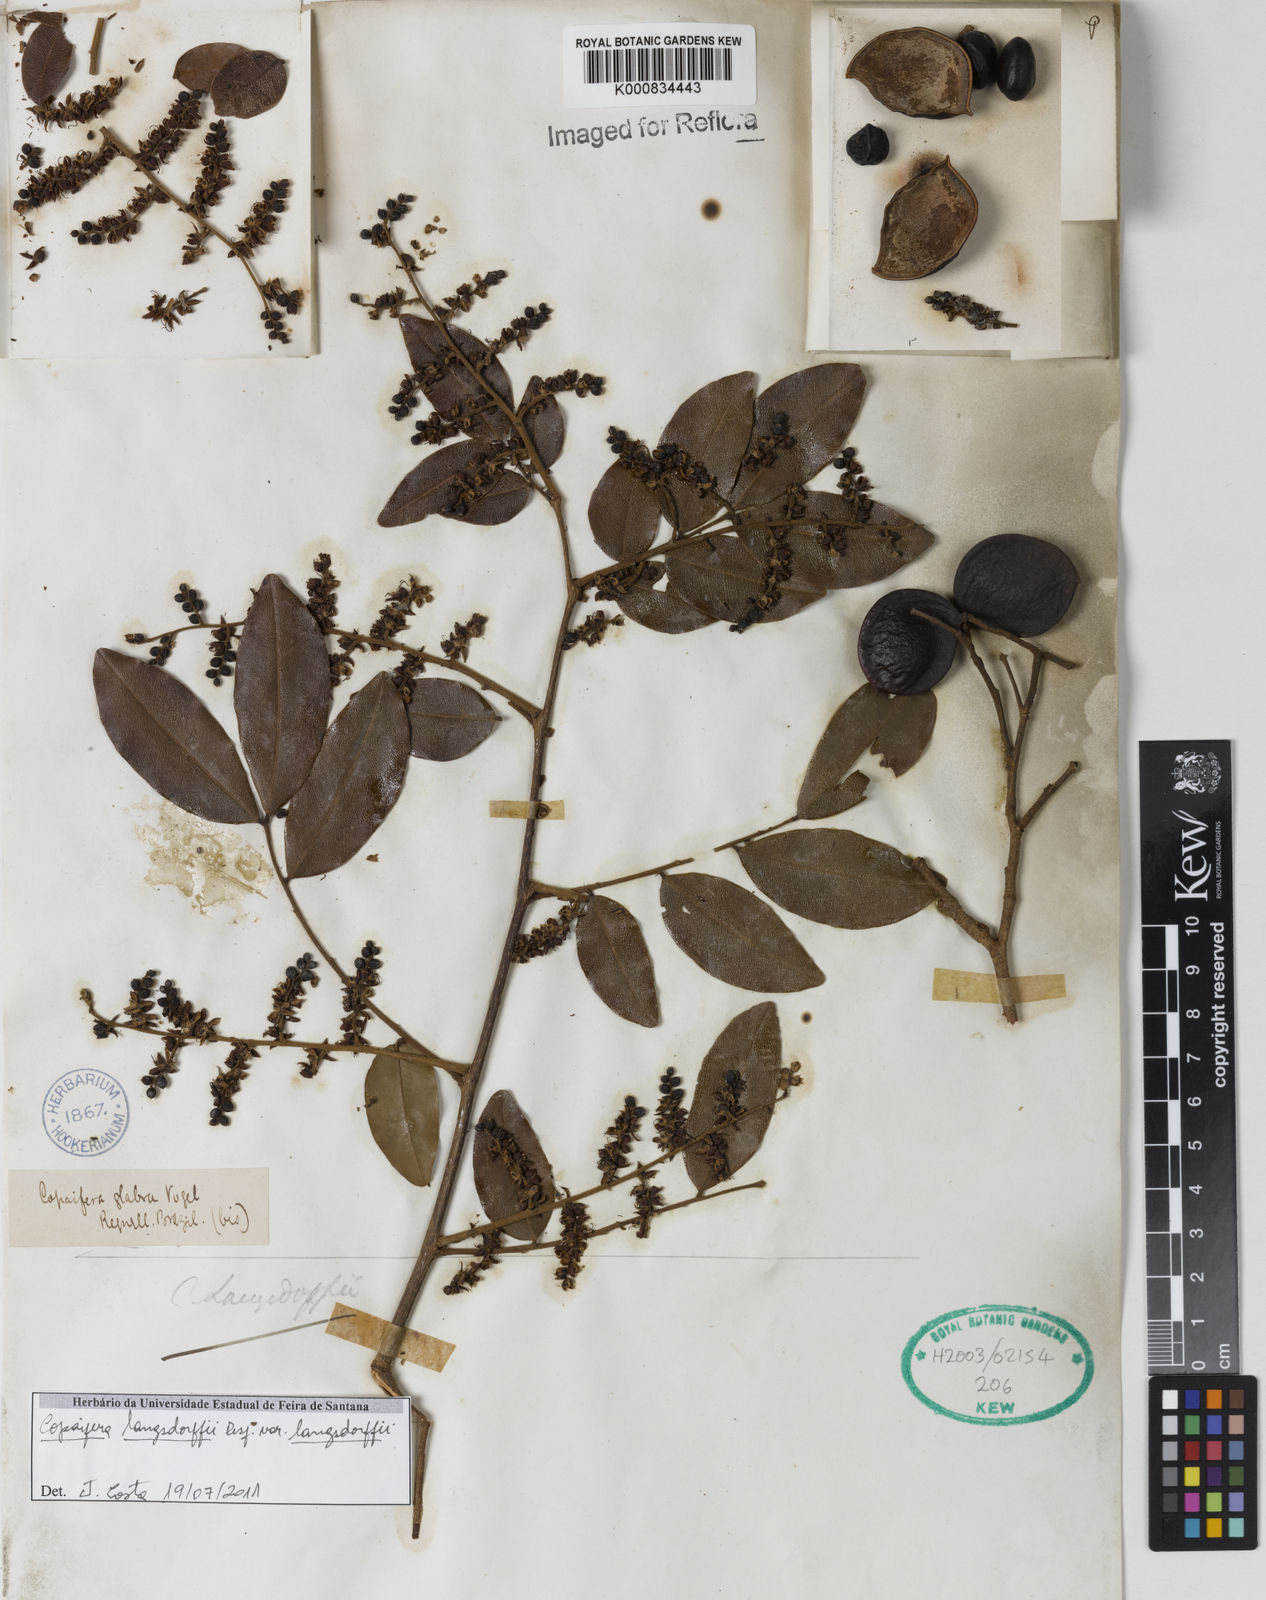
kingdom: Plantae
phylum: Tracheophyta
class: Magnoliopsida
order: Fabales
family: Fabaceae
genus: Copaifera
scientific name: Copaifera langsdorffii
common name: Brazilian diesel tree
